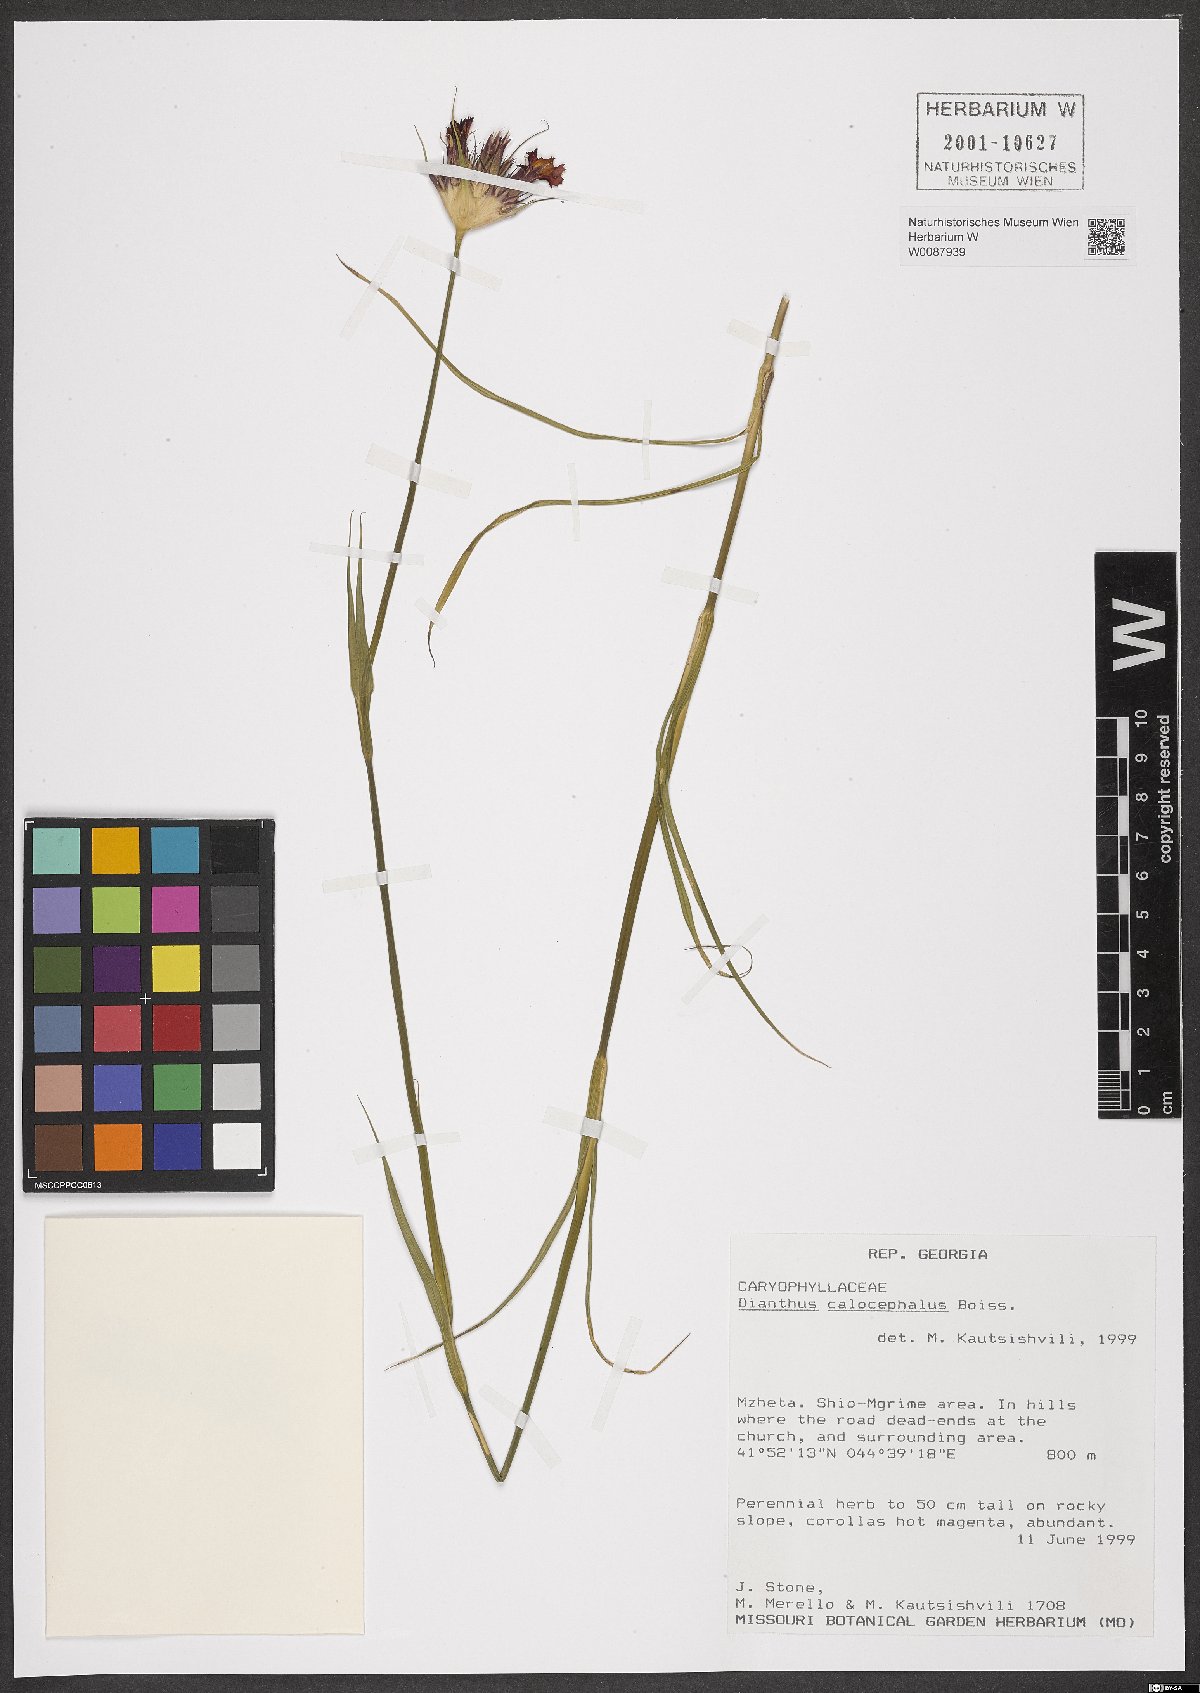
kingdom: Plantae
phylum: Tracheophyta
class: Magnoliopsida
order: Caryophyllales
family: Caryophyllaceae
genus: Dianthus
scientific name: Dianthus cruentus
